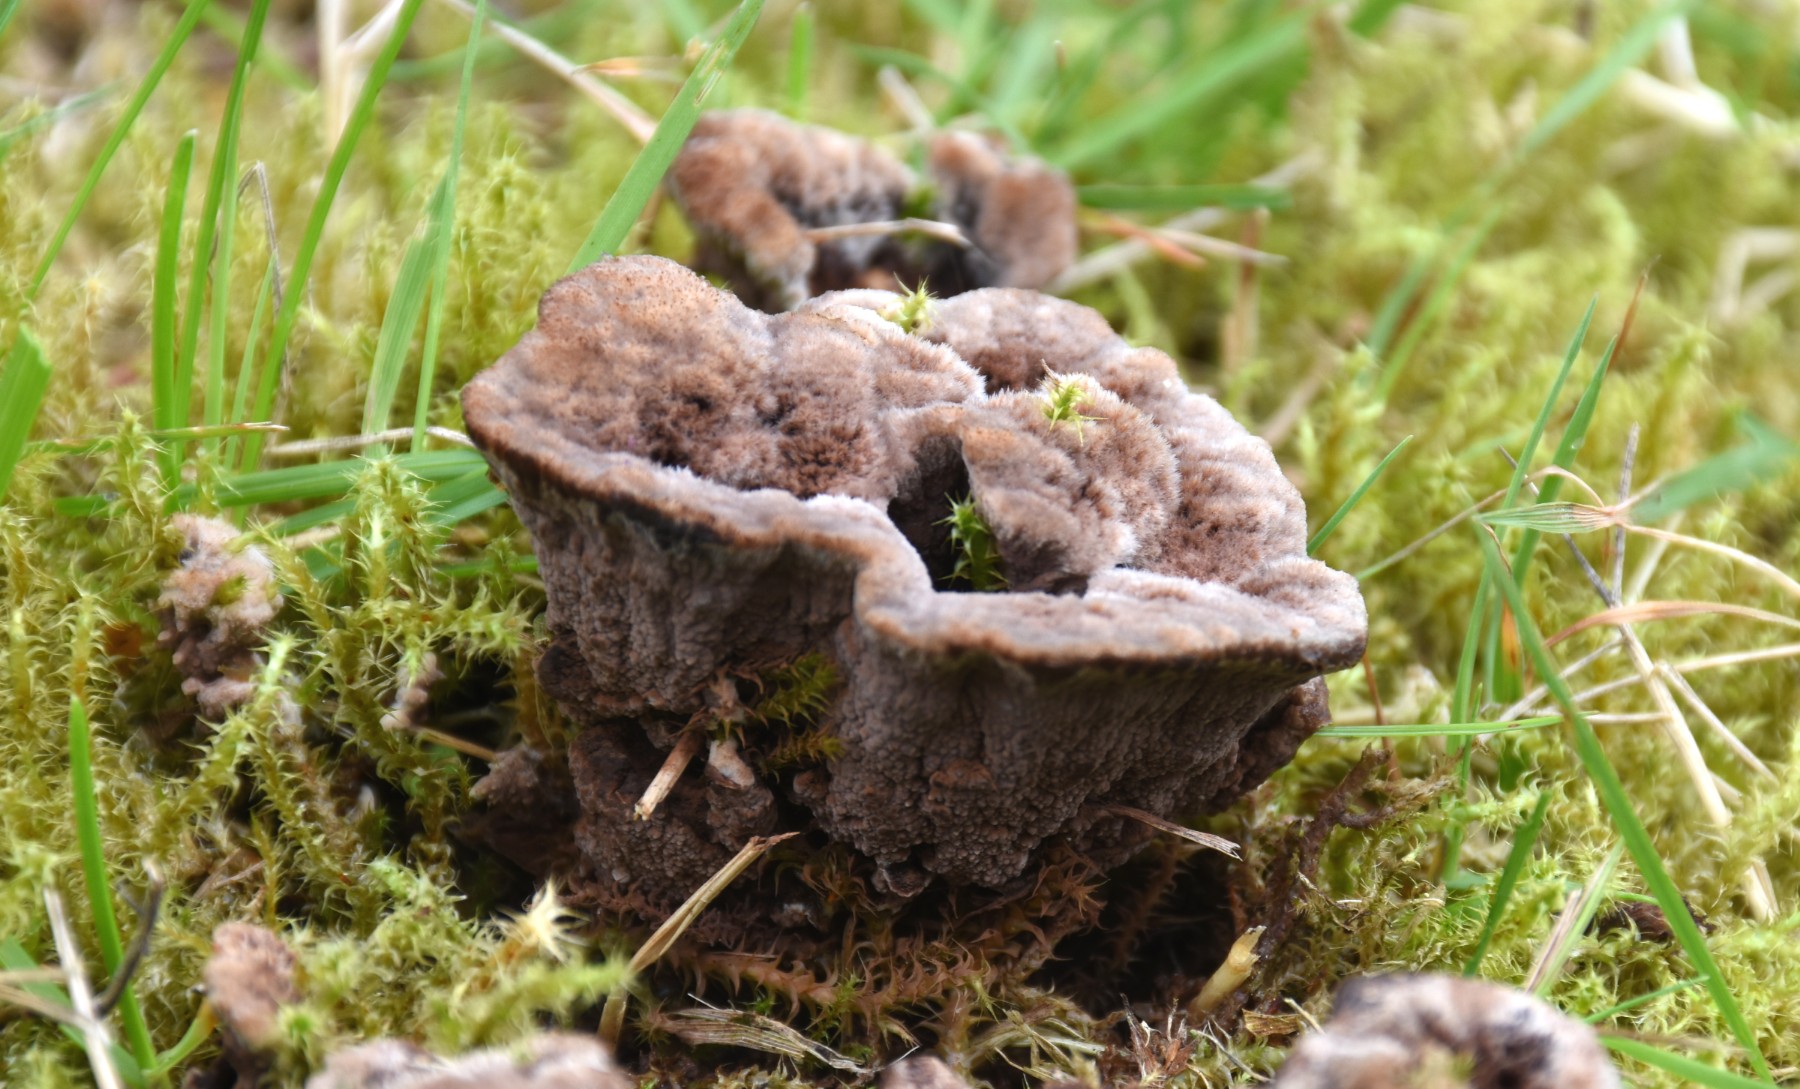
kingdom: Fungi
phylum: Basidiomycota
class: Agaricomycetes
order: Thelephorales
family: Thelephoraceae
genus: Thelephora
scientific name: Thelephora terrestris
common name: fliget frynsesvamp
